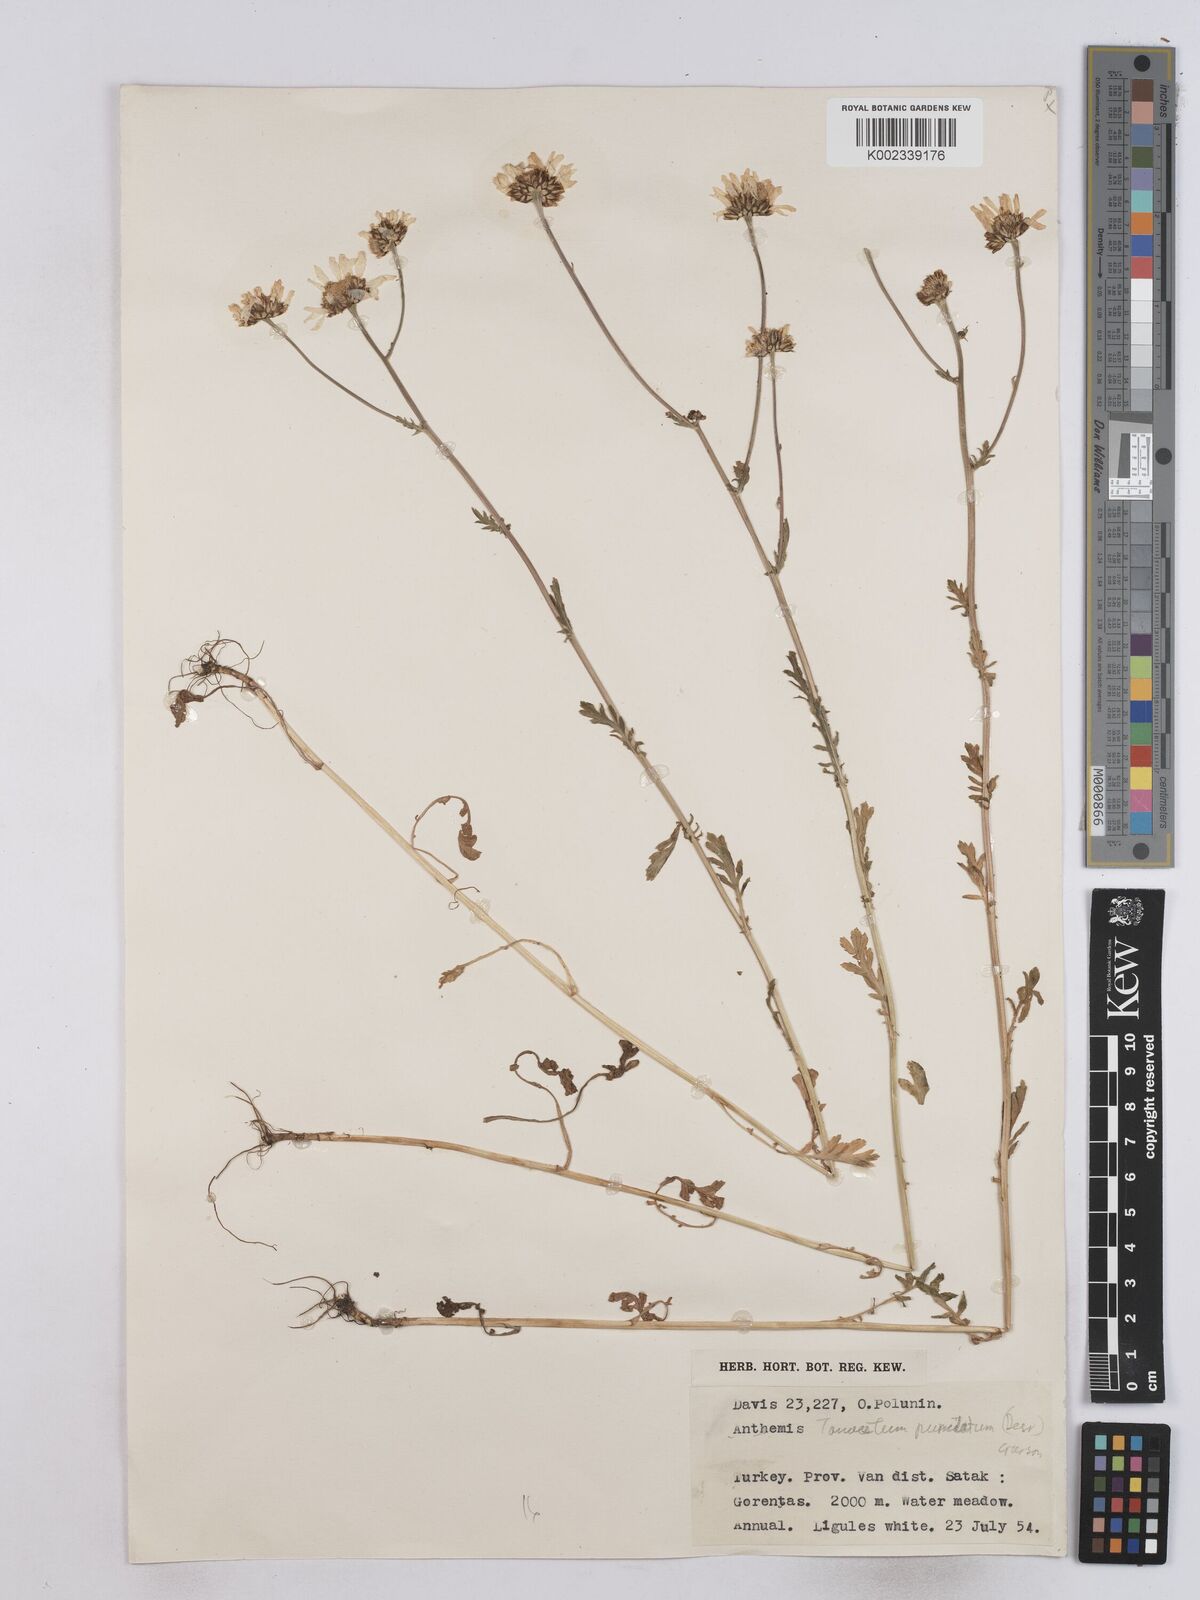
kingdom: Plantae
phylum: Tracheophyta
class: Magnoliopsida
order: Asterales
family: Asteraceae
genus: Tanacetum
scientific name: Tanacetum punctatum
